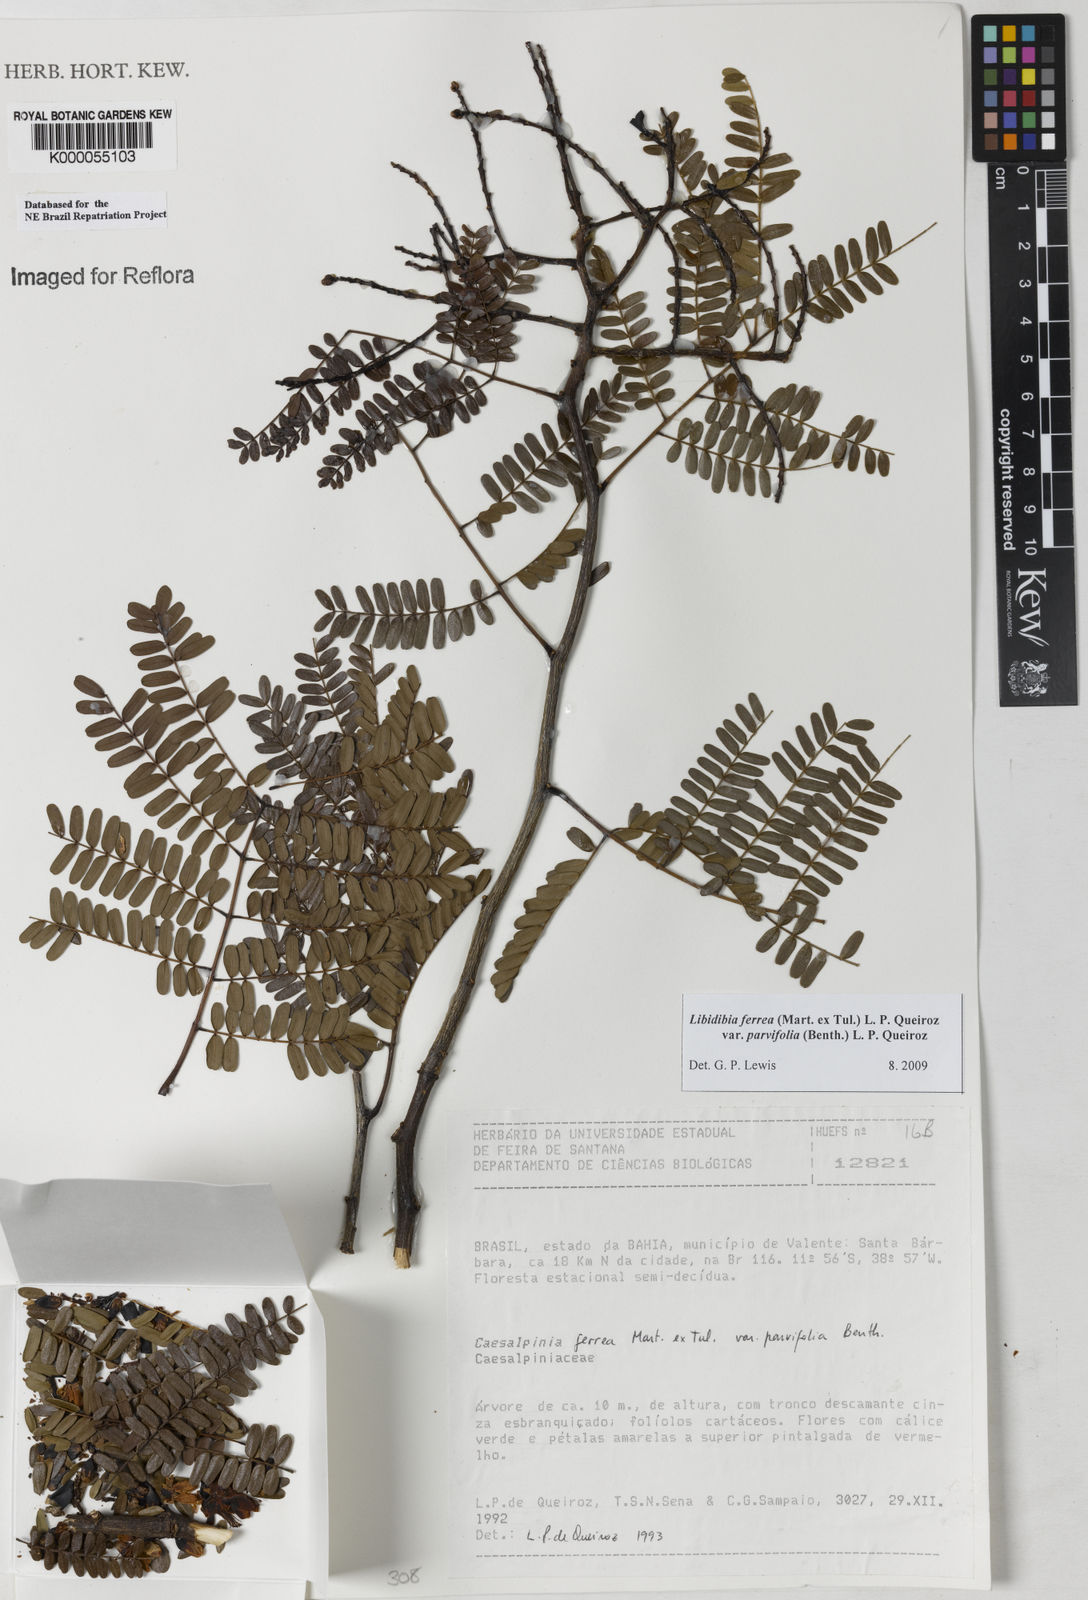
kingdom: Plantae
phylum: Tracheophyta
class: Magnoliopsida
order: Fabales
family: Fabaceae
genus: Libidibia
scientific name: Libidibia ferrea
